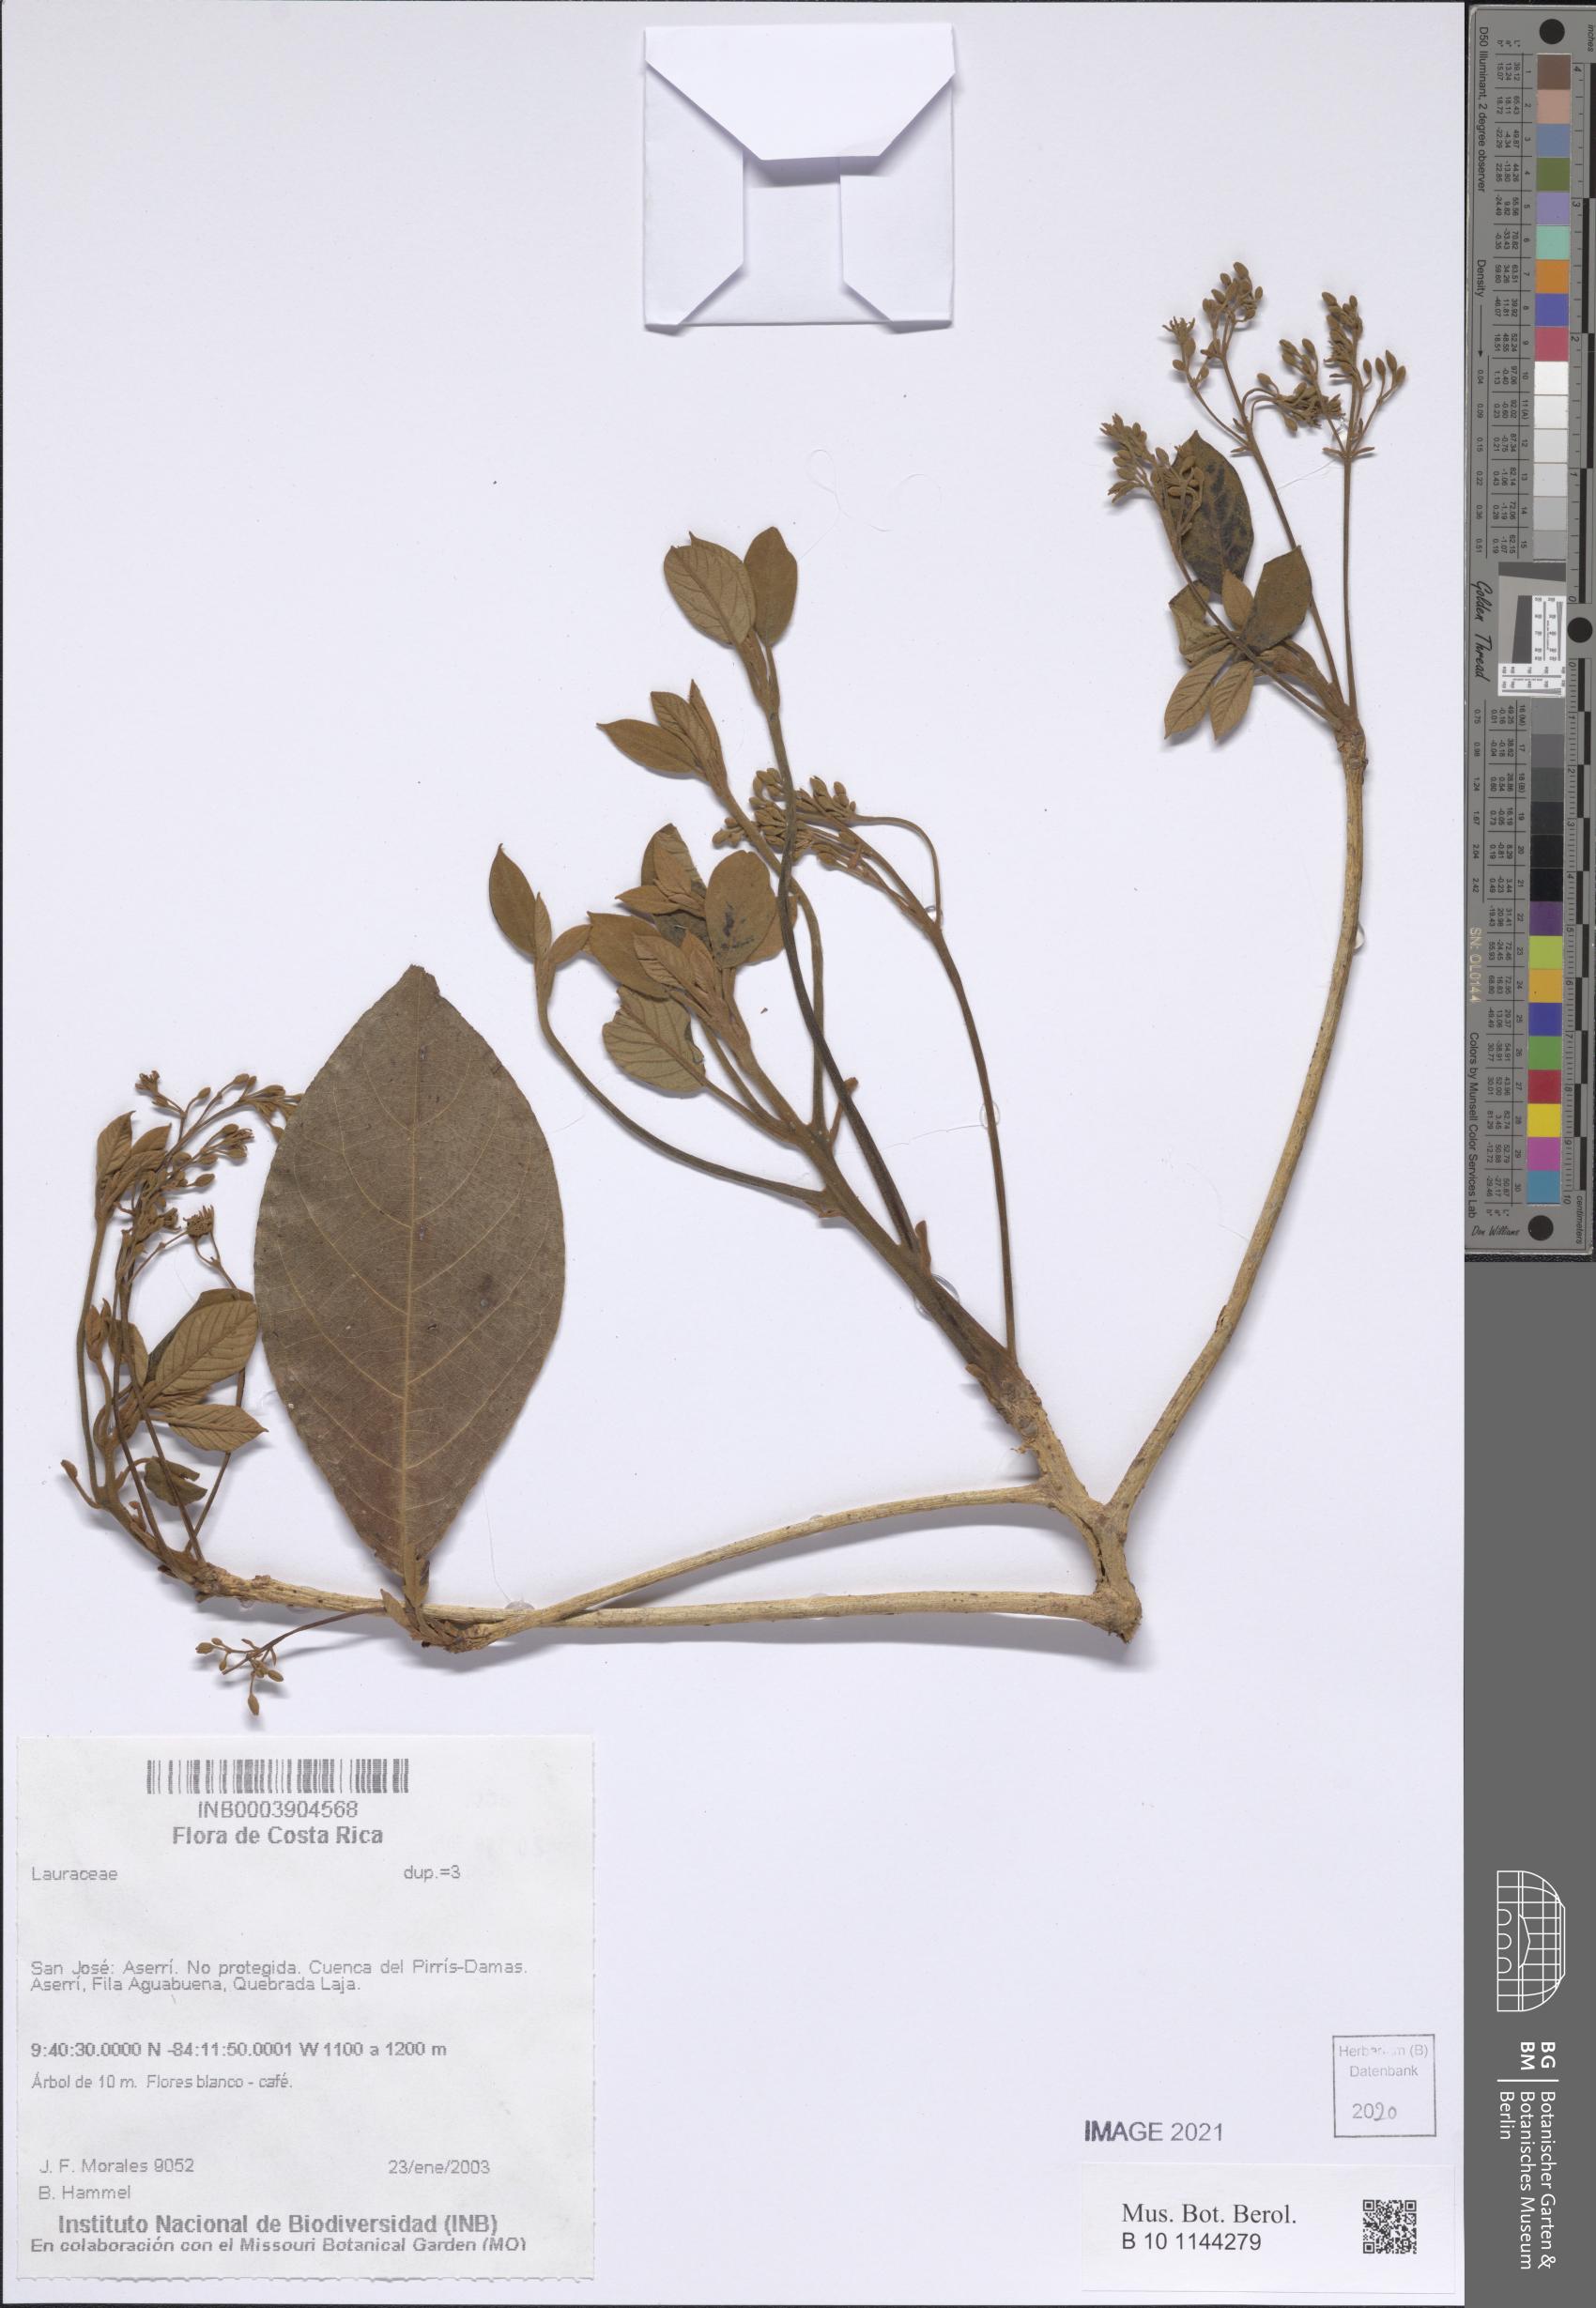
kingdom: Plantae
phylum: Tracheophyta
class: Magnoliopsida
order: Laurales
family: Lauraceae
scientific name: Lauraceae
